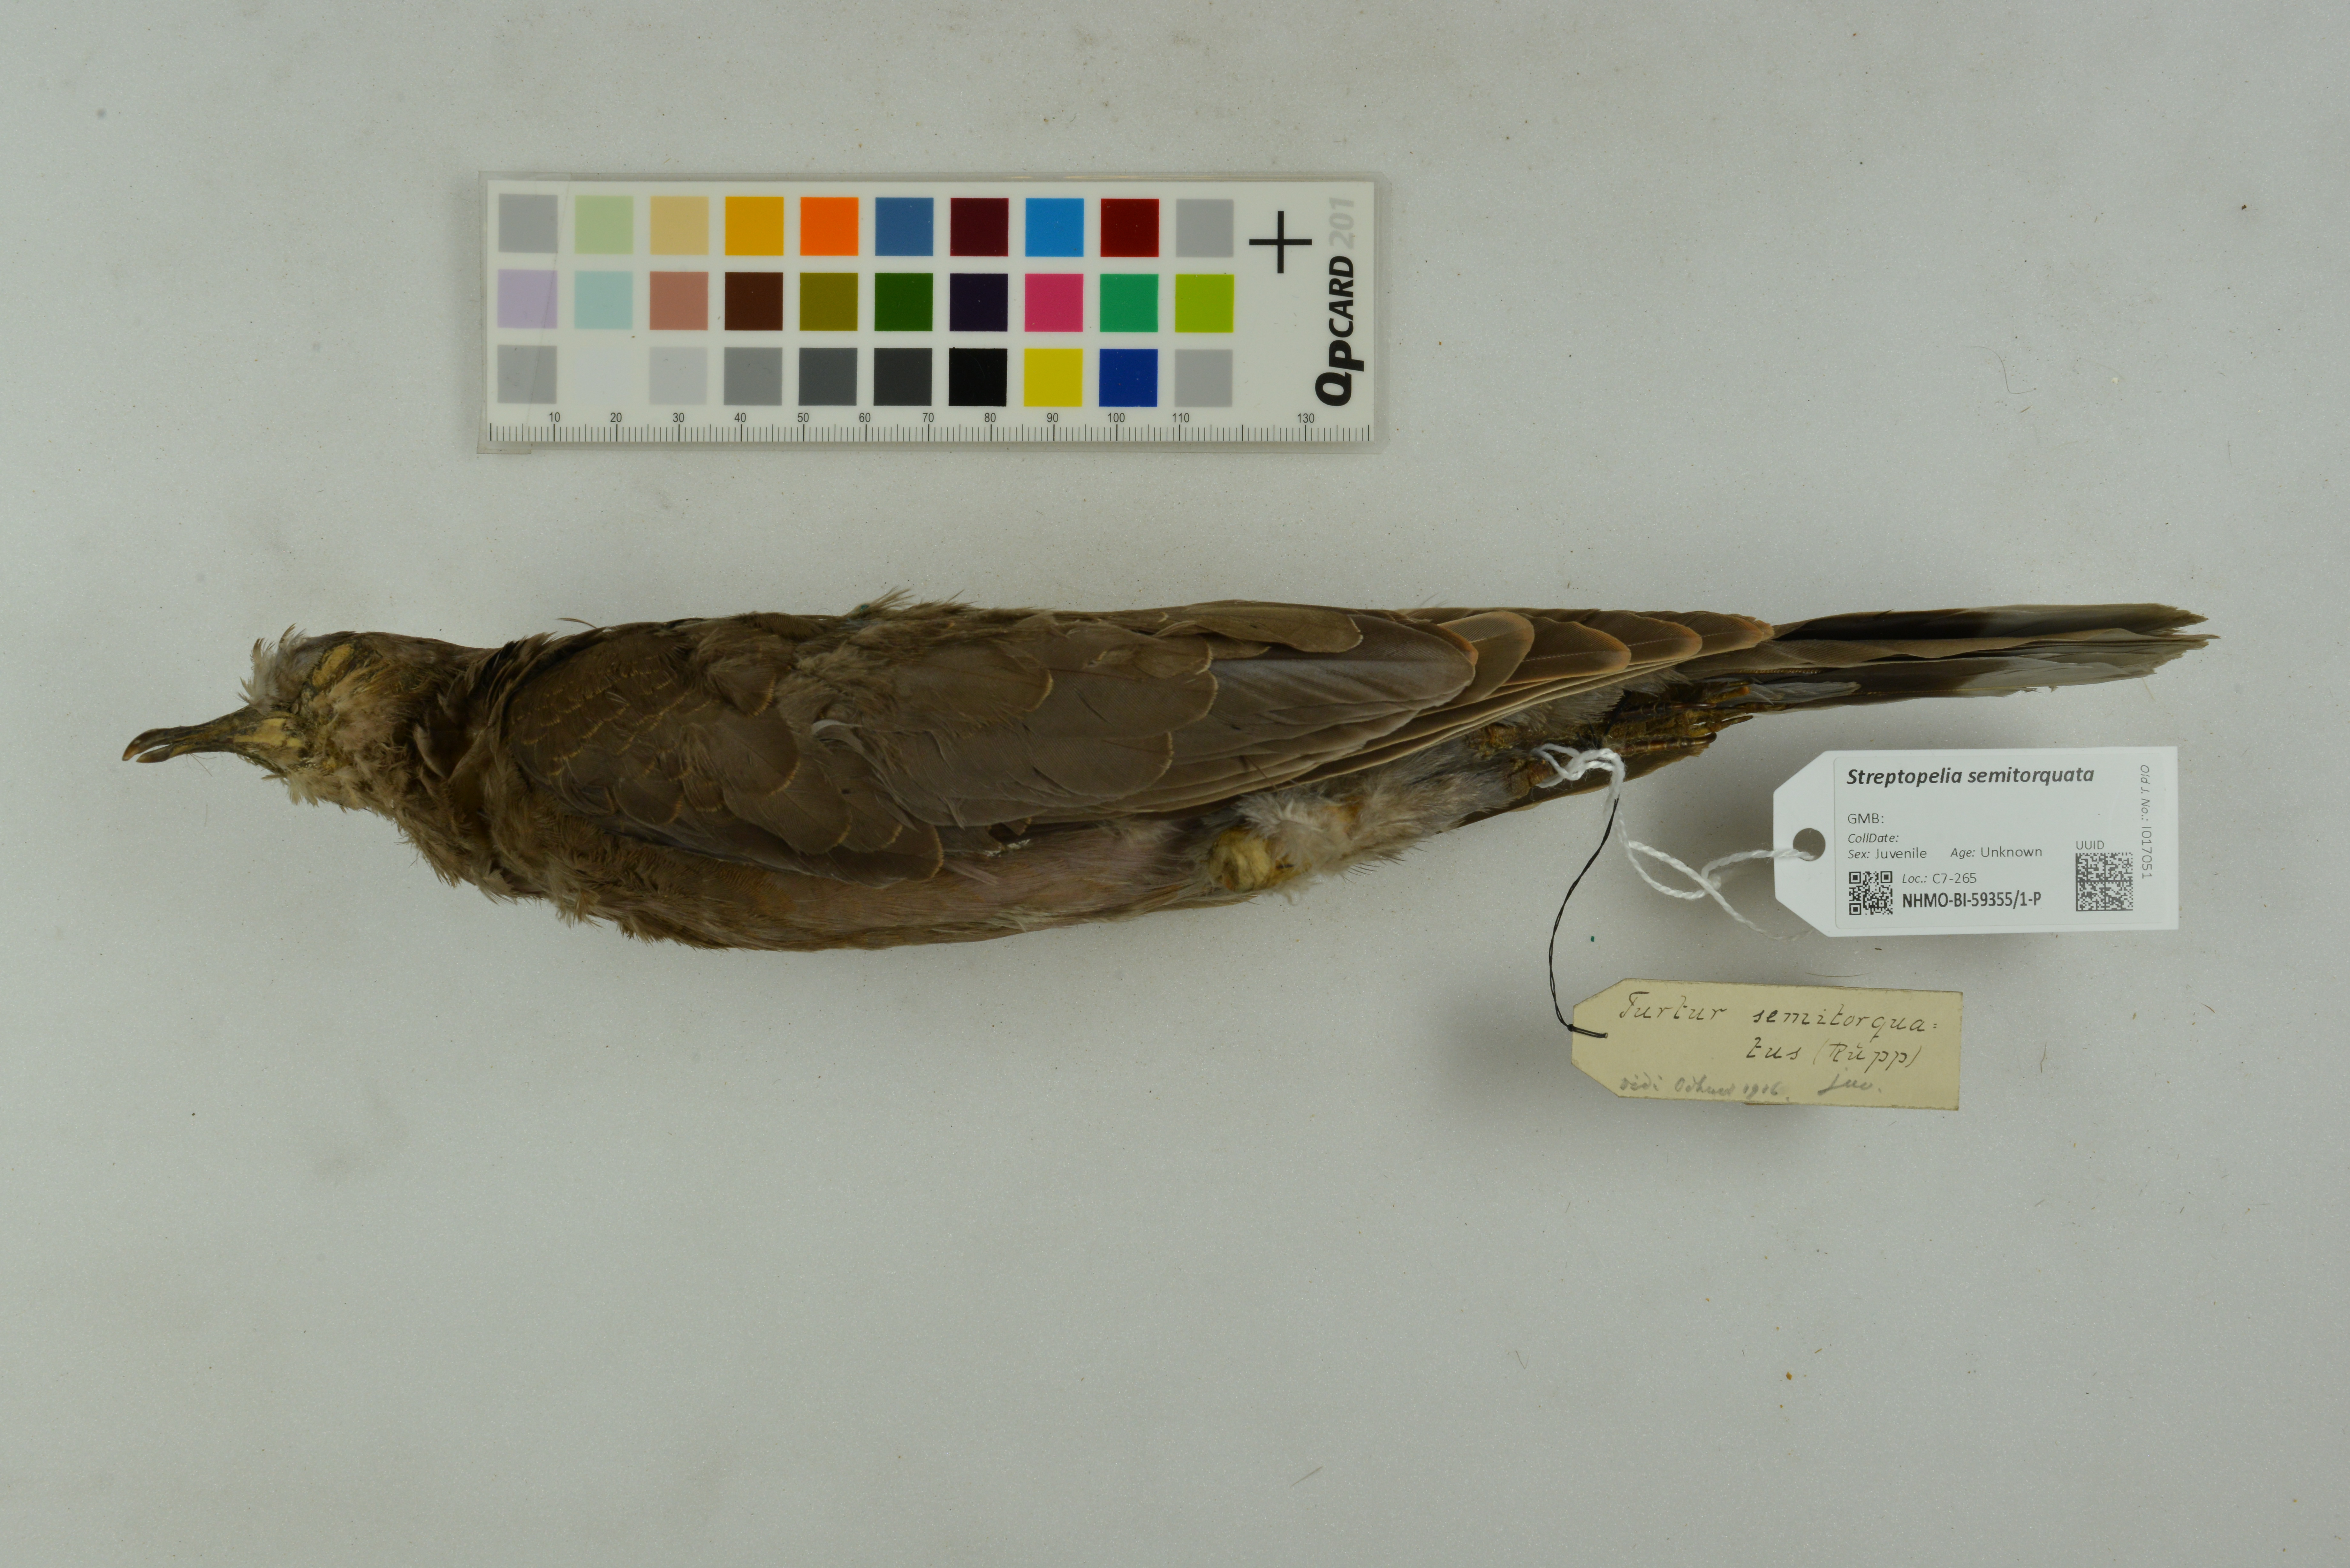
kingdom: Animalia
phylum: Chordata
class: Aves
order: Columbiformes
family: Columbidae
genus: Streptopelia
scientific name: Streptopelia semitorquata
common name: Red-eyed dove
